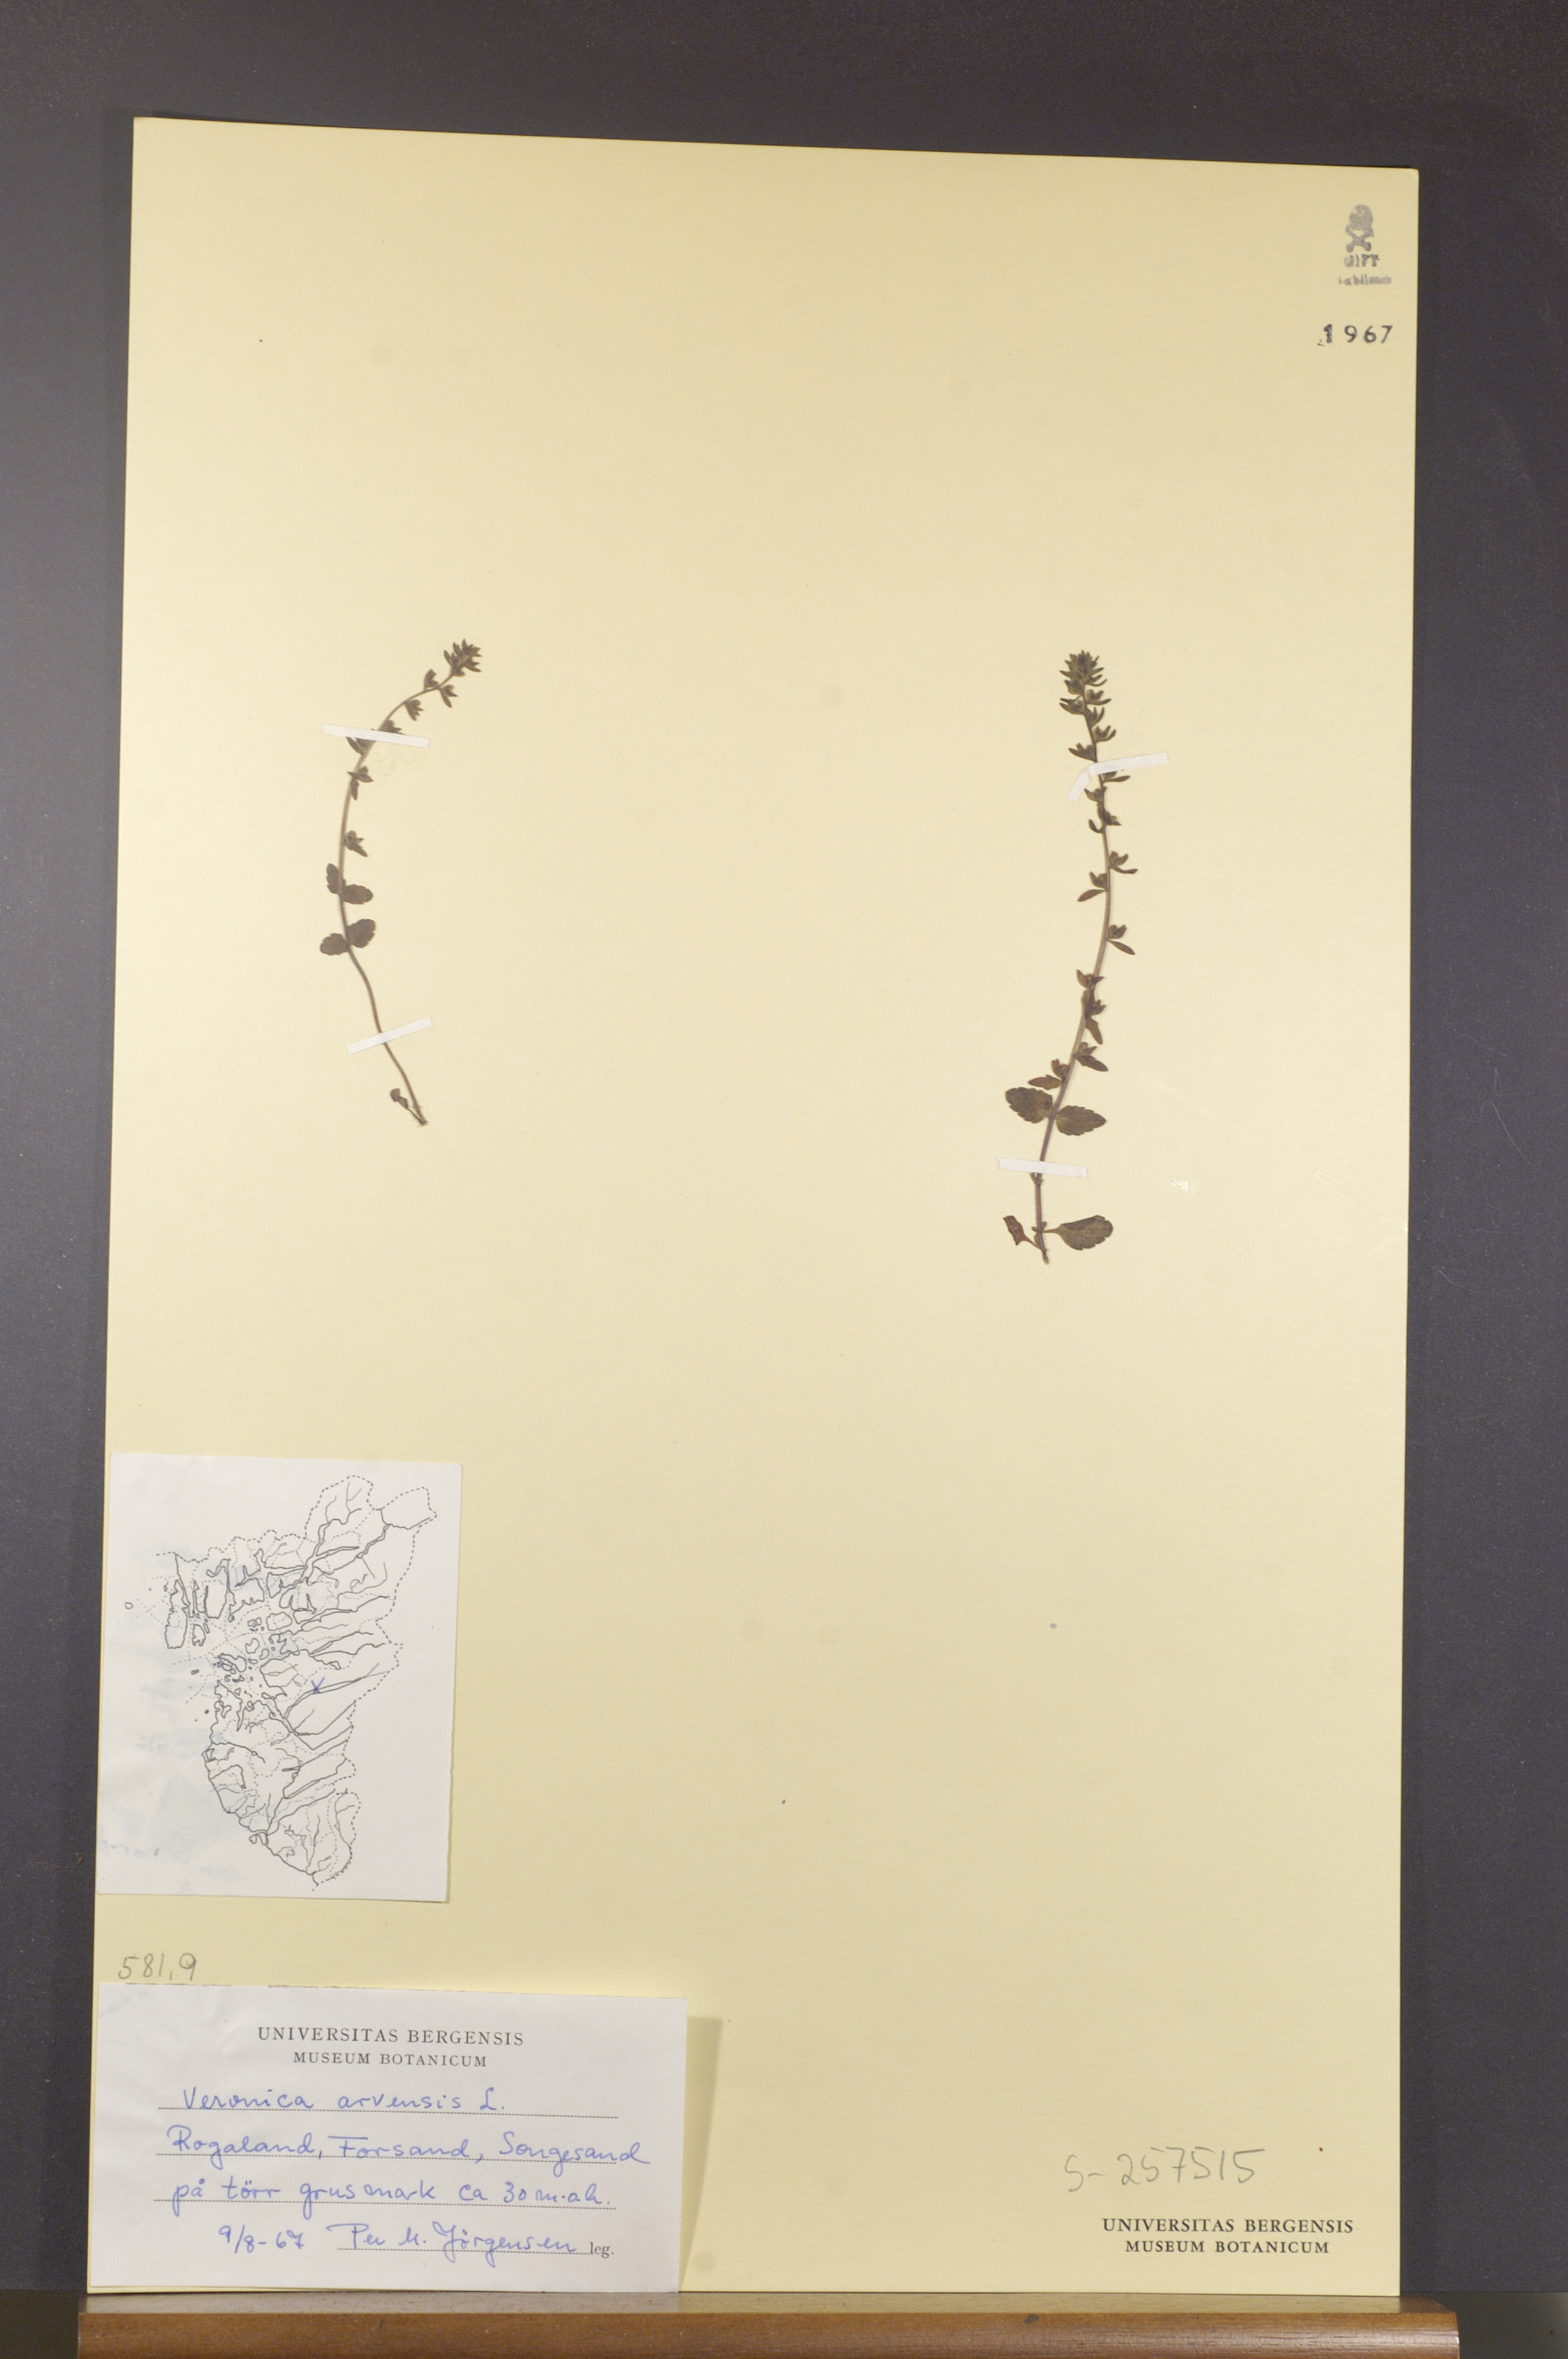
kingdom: Plantae
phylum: Tracheophyta
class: Magnoliopsida
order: Lamiales
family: Plantaginaceae
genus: Veronica
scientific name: Veronica arvensis
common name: Corn speedwell
